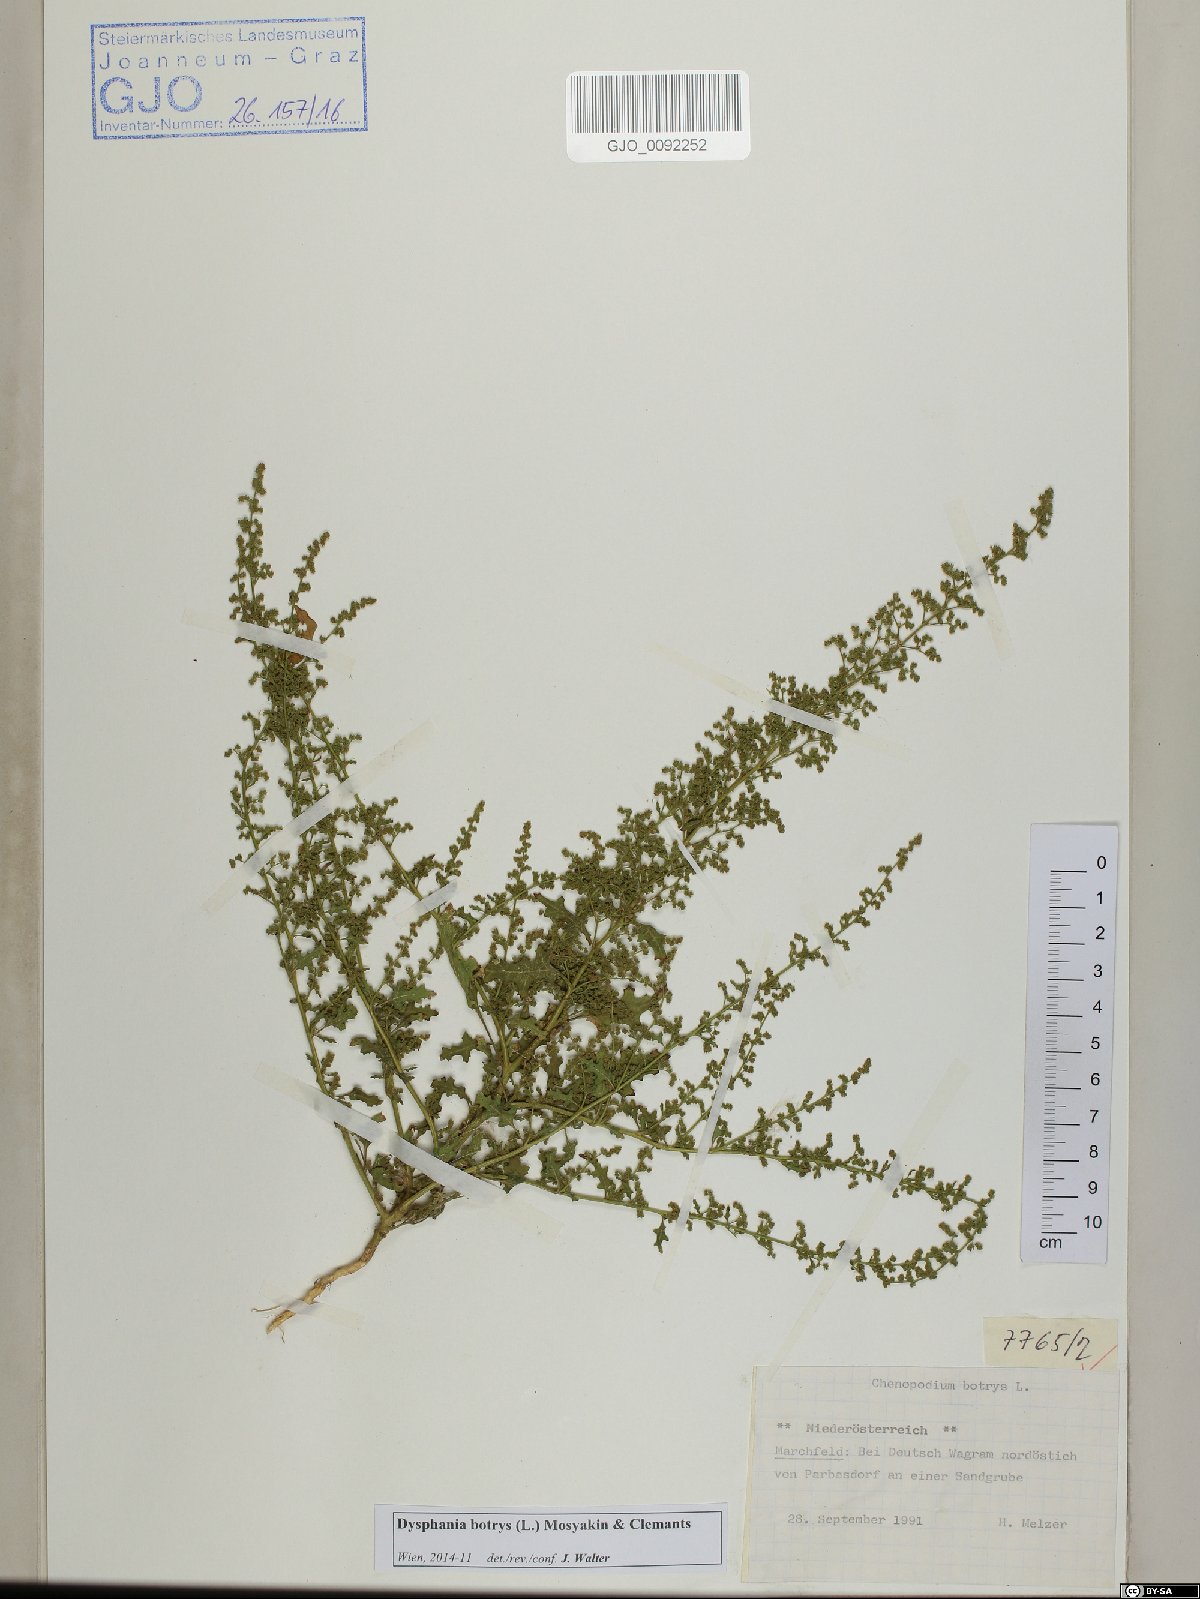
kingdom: Plantae
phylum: Tracheophyta
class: Magnoliopsida
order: Caryophyllales
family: Amaranthaceae
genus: Dysphania
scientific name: Dysphania botrys
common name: Feather-geranium
